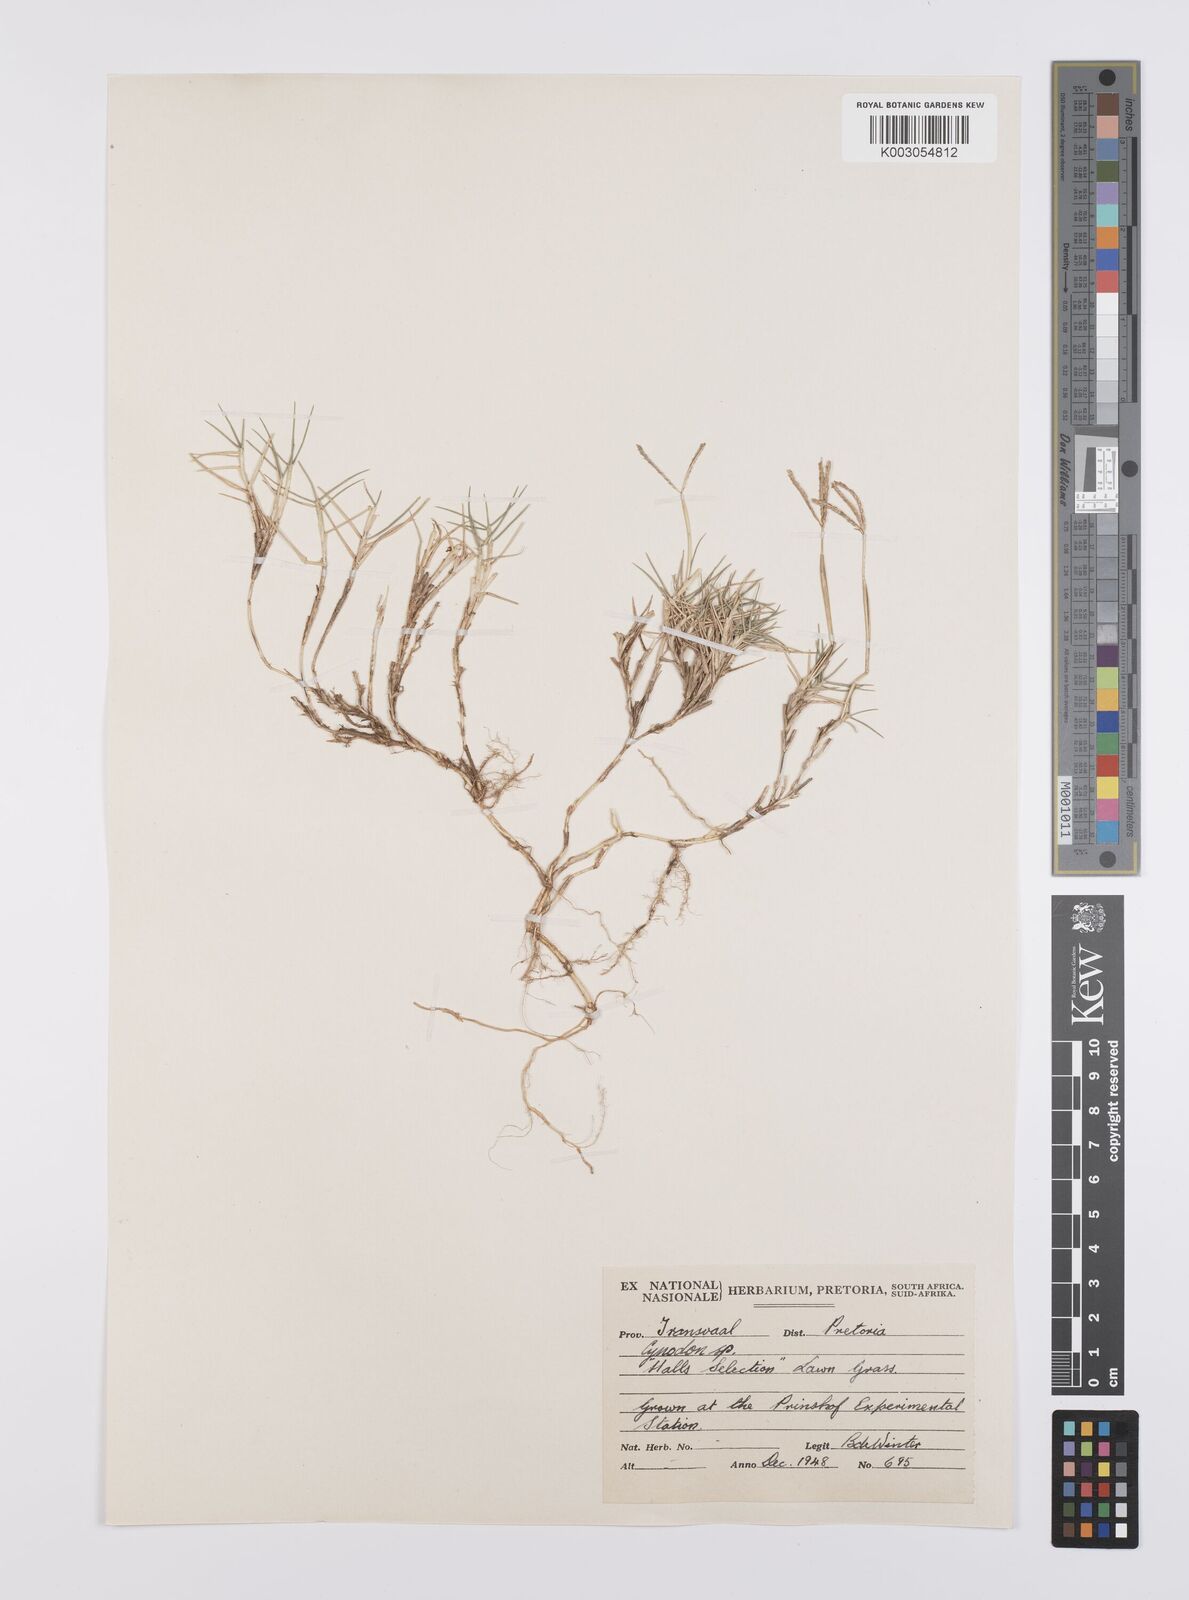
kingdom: Plantae
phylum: Tracheophyta
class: Liliopsida
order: Poales
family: Poaceae
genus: Cynodon
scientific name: Cynodon dactylon
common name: Bermuda grass
